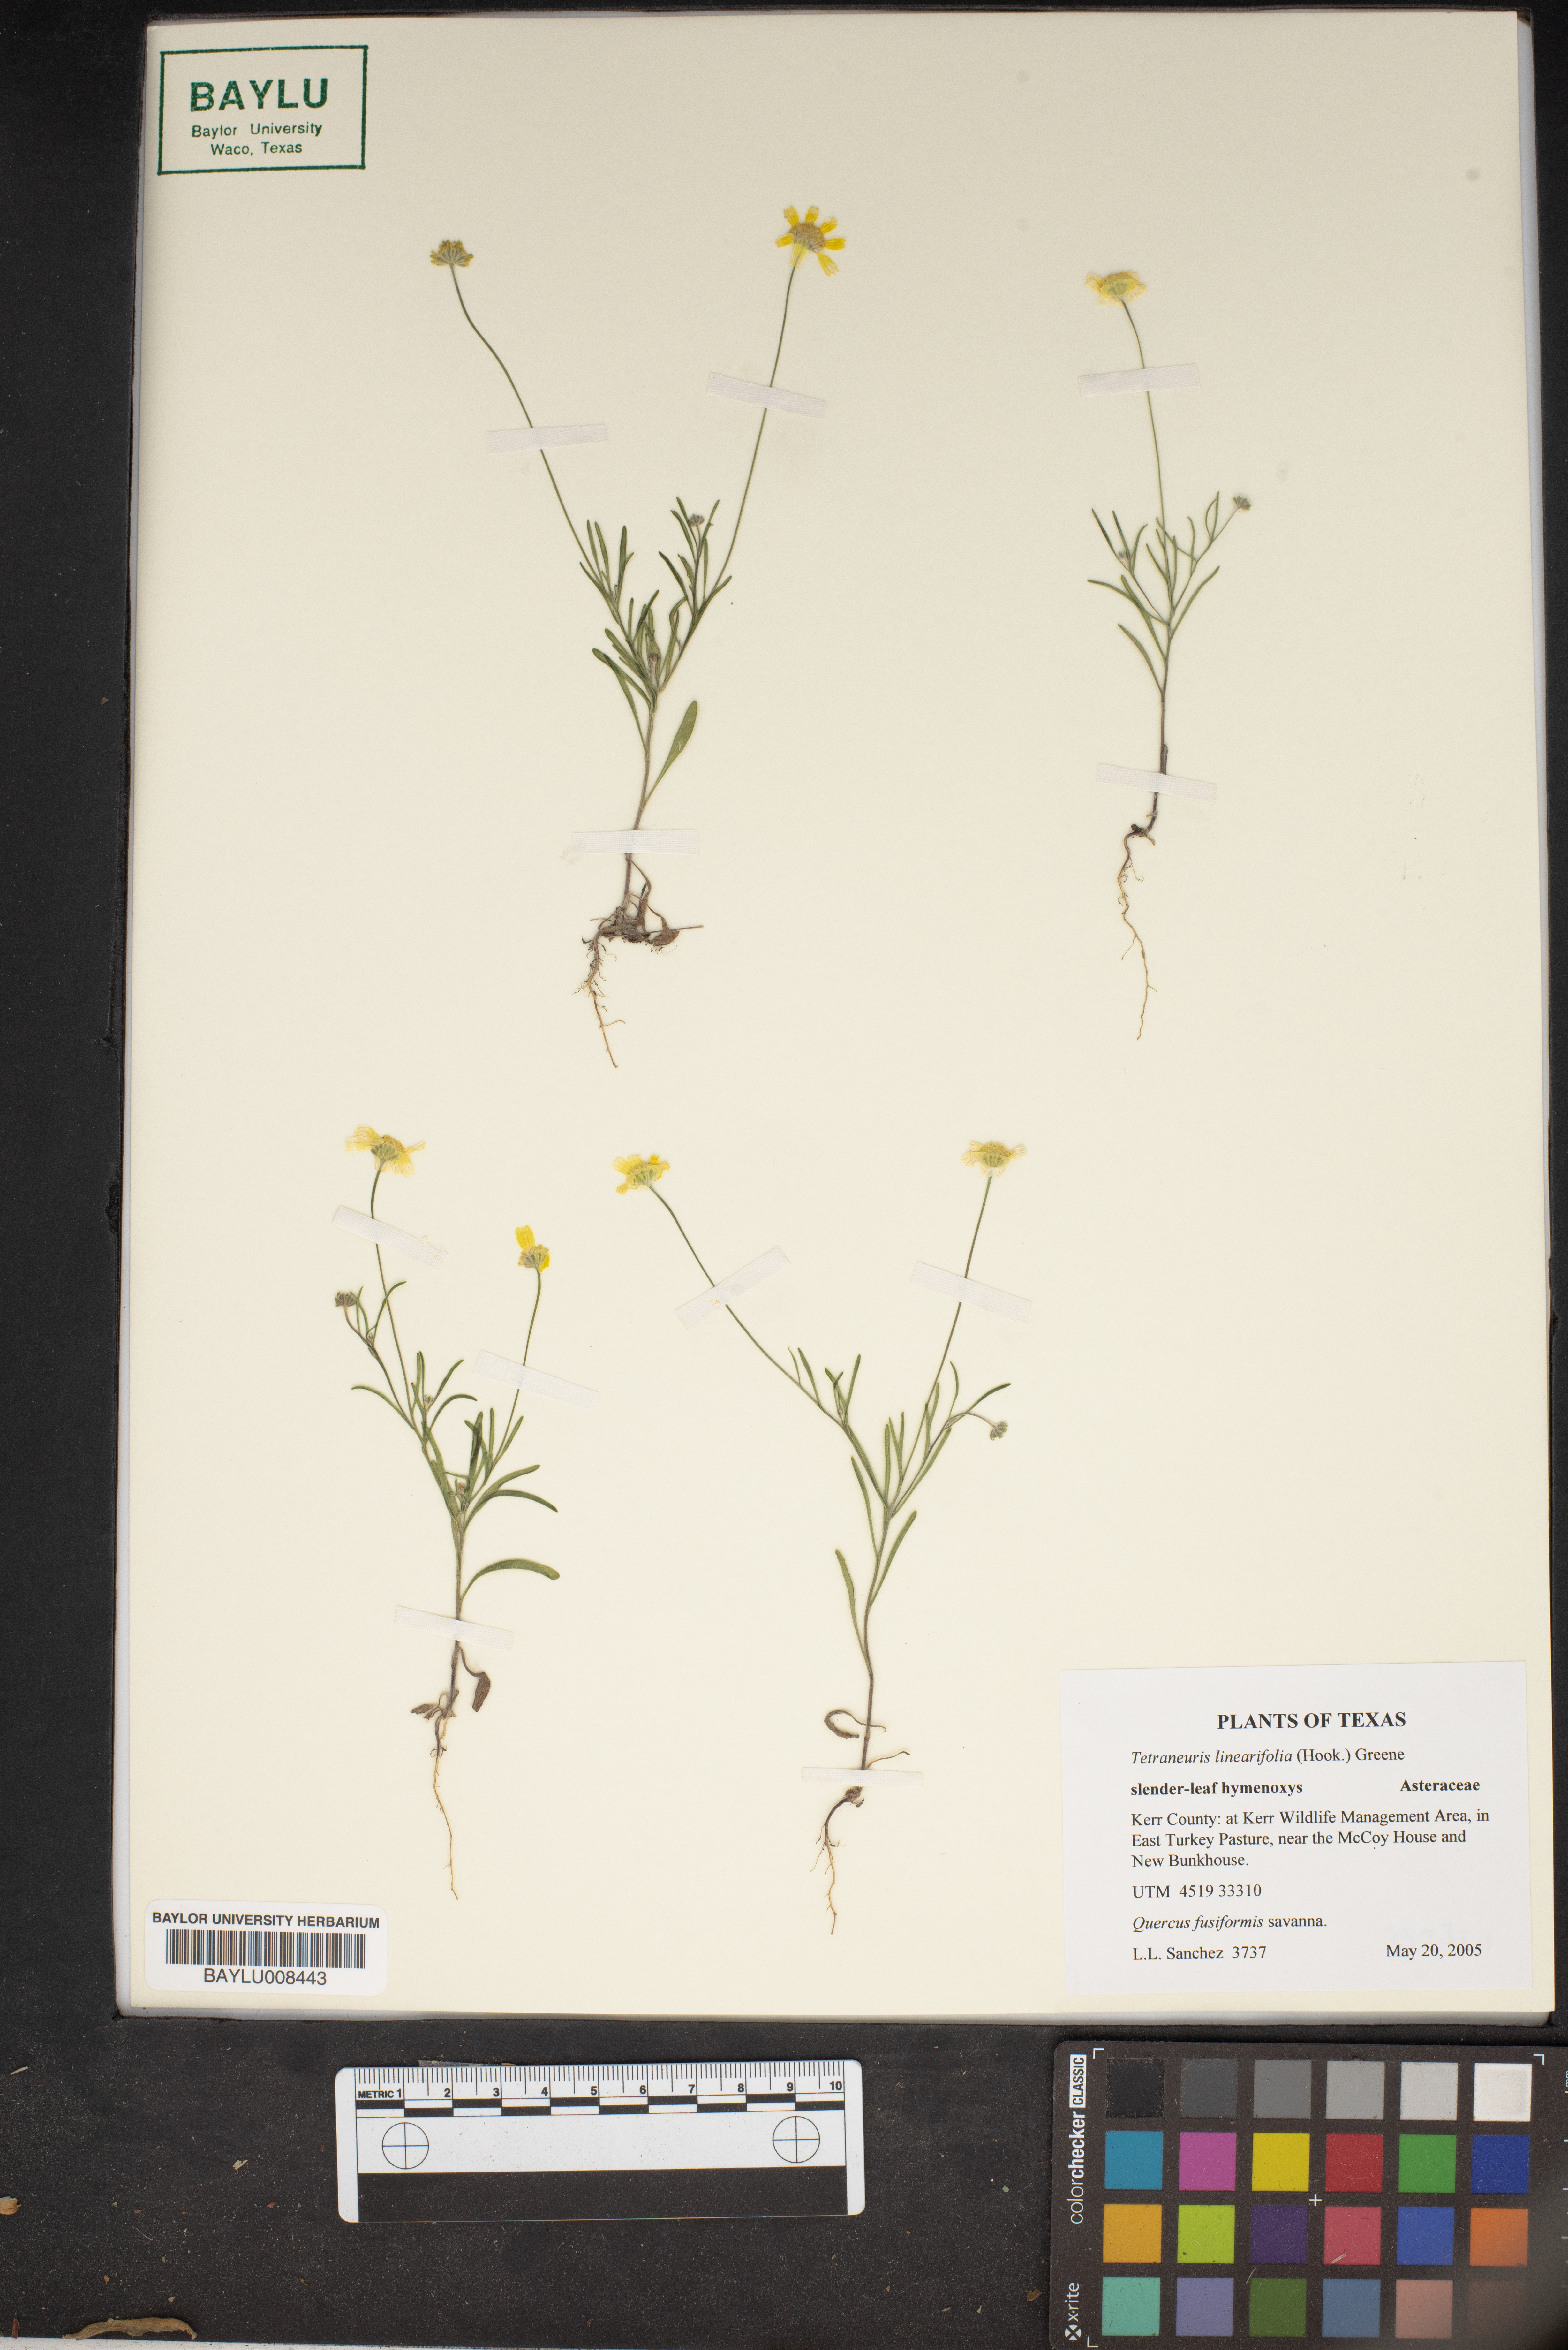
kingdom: Plantae
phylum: Tracheophyta
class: Magnoliopsida
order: Asterales
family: Asteraceae
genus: Tetraneuris
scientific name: Tetraneuris linearifolia
